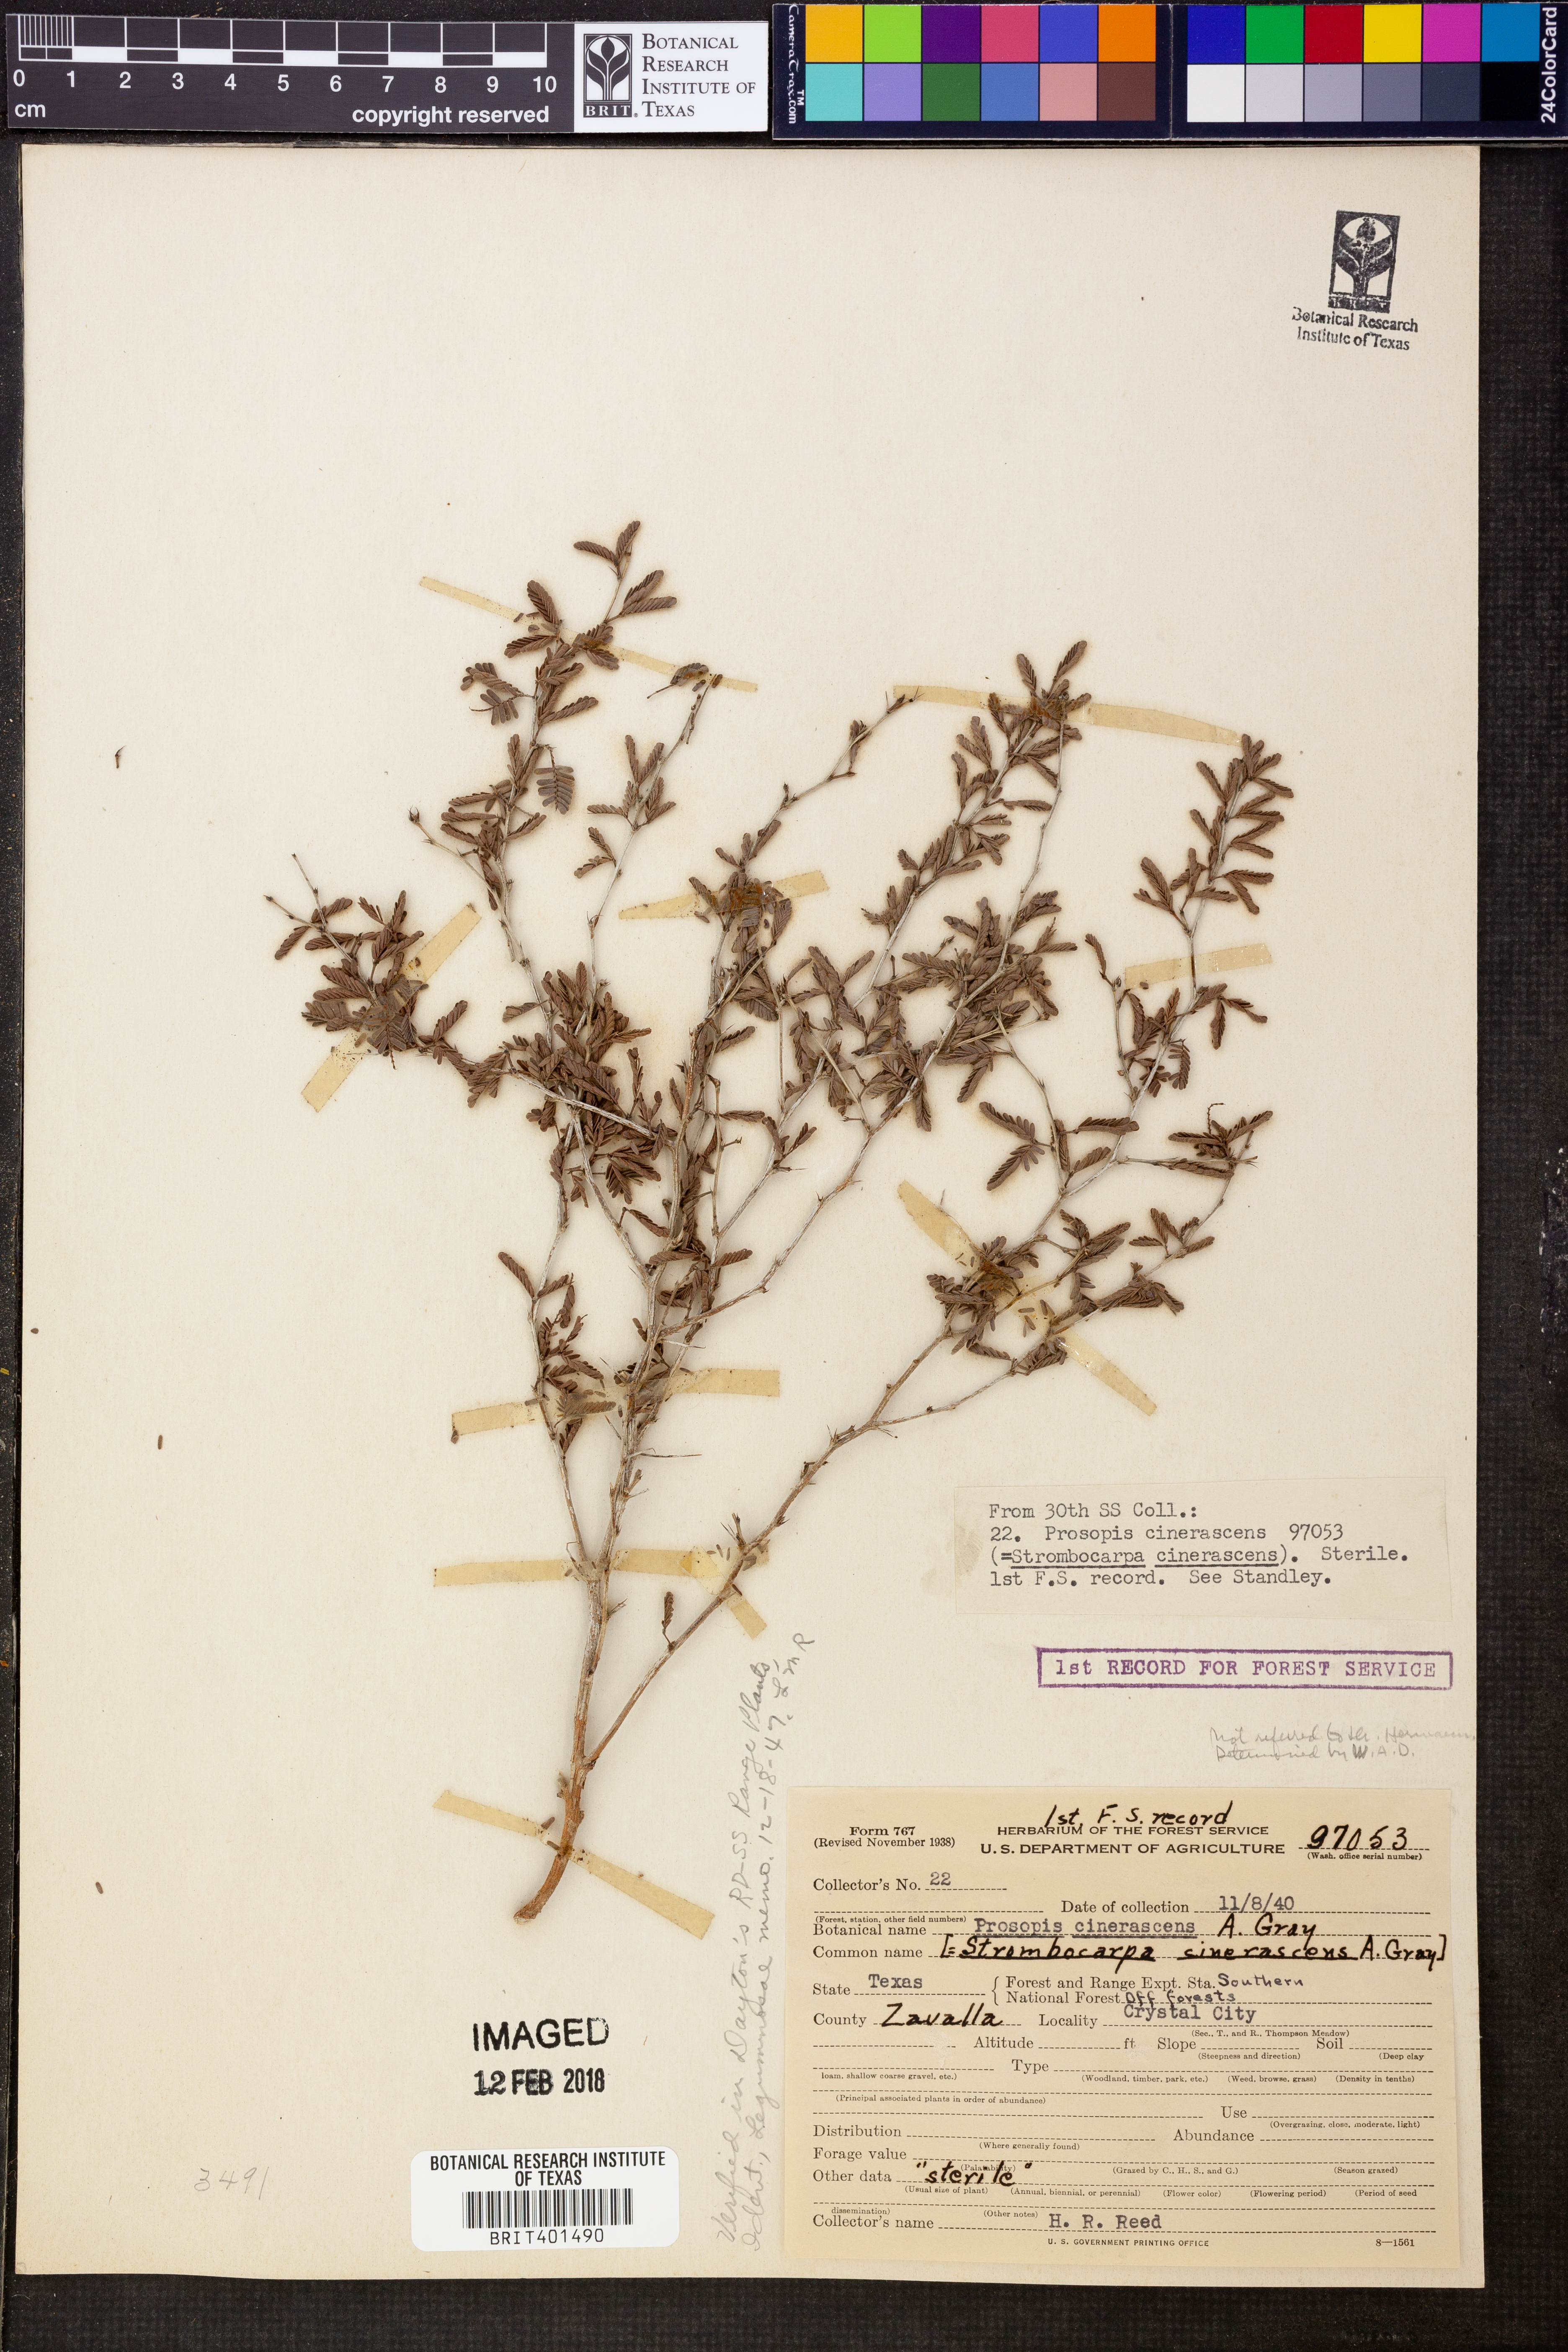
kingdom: Plantae
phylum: Tracheophyta
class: Magnoliopsida
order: Fabales
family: Fabaceae
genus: Prosopis
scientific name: Prosopis cinerascens
